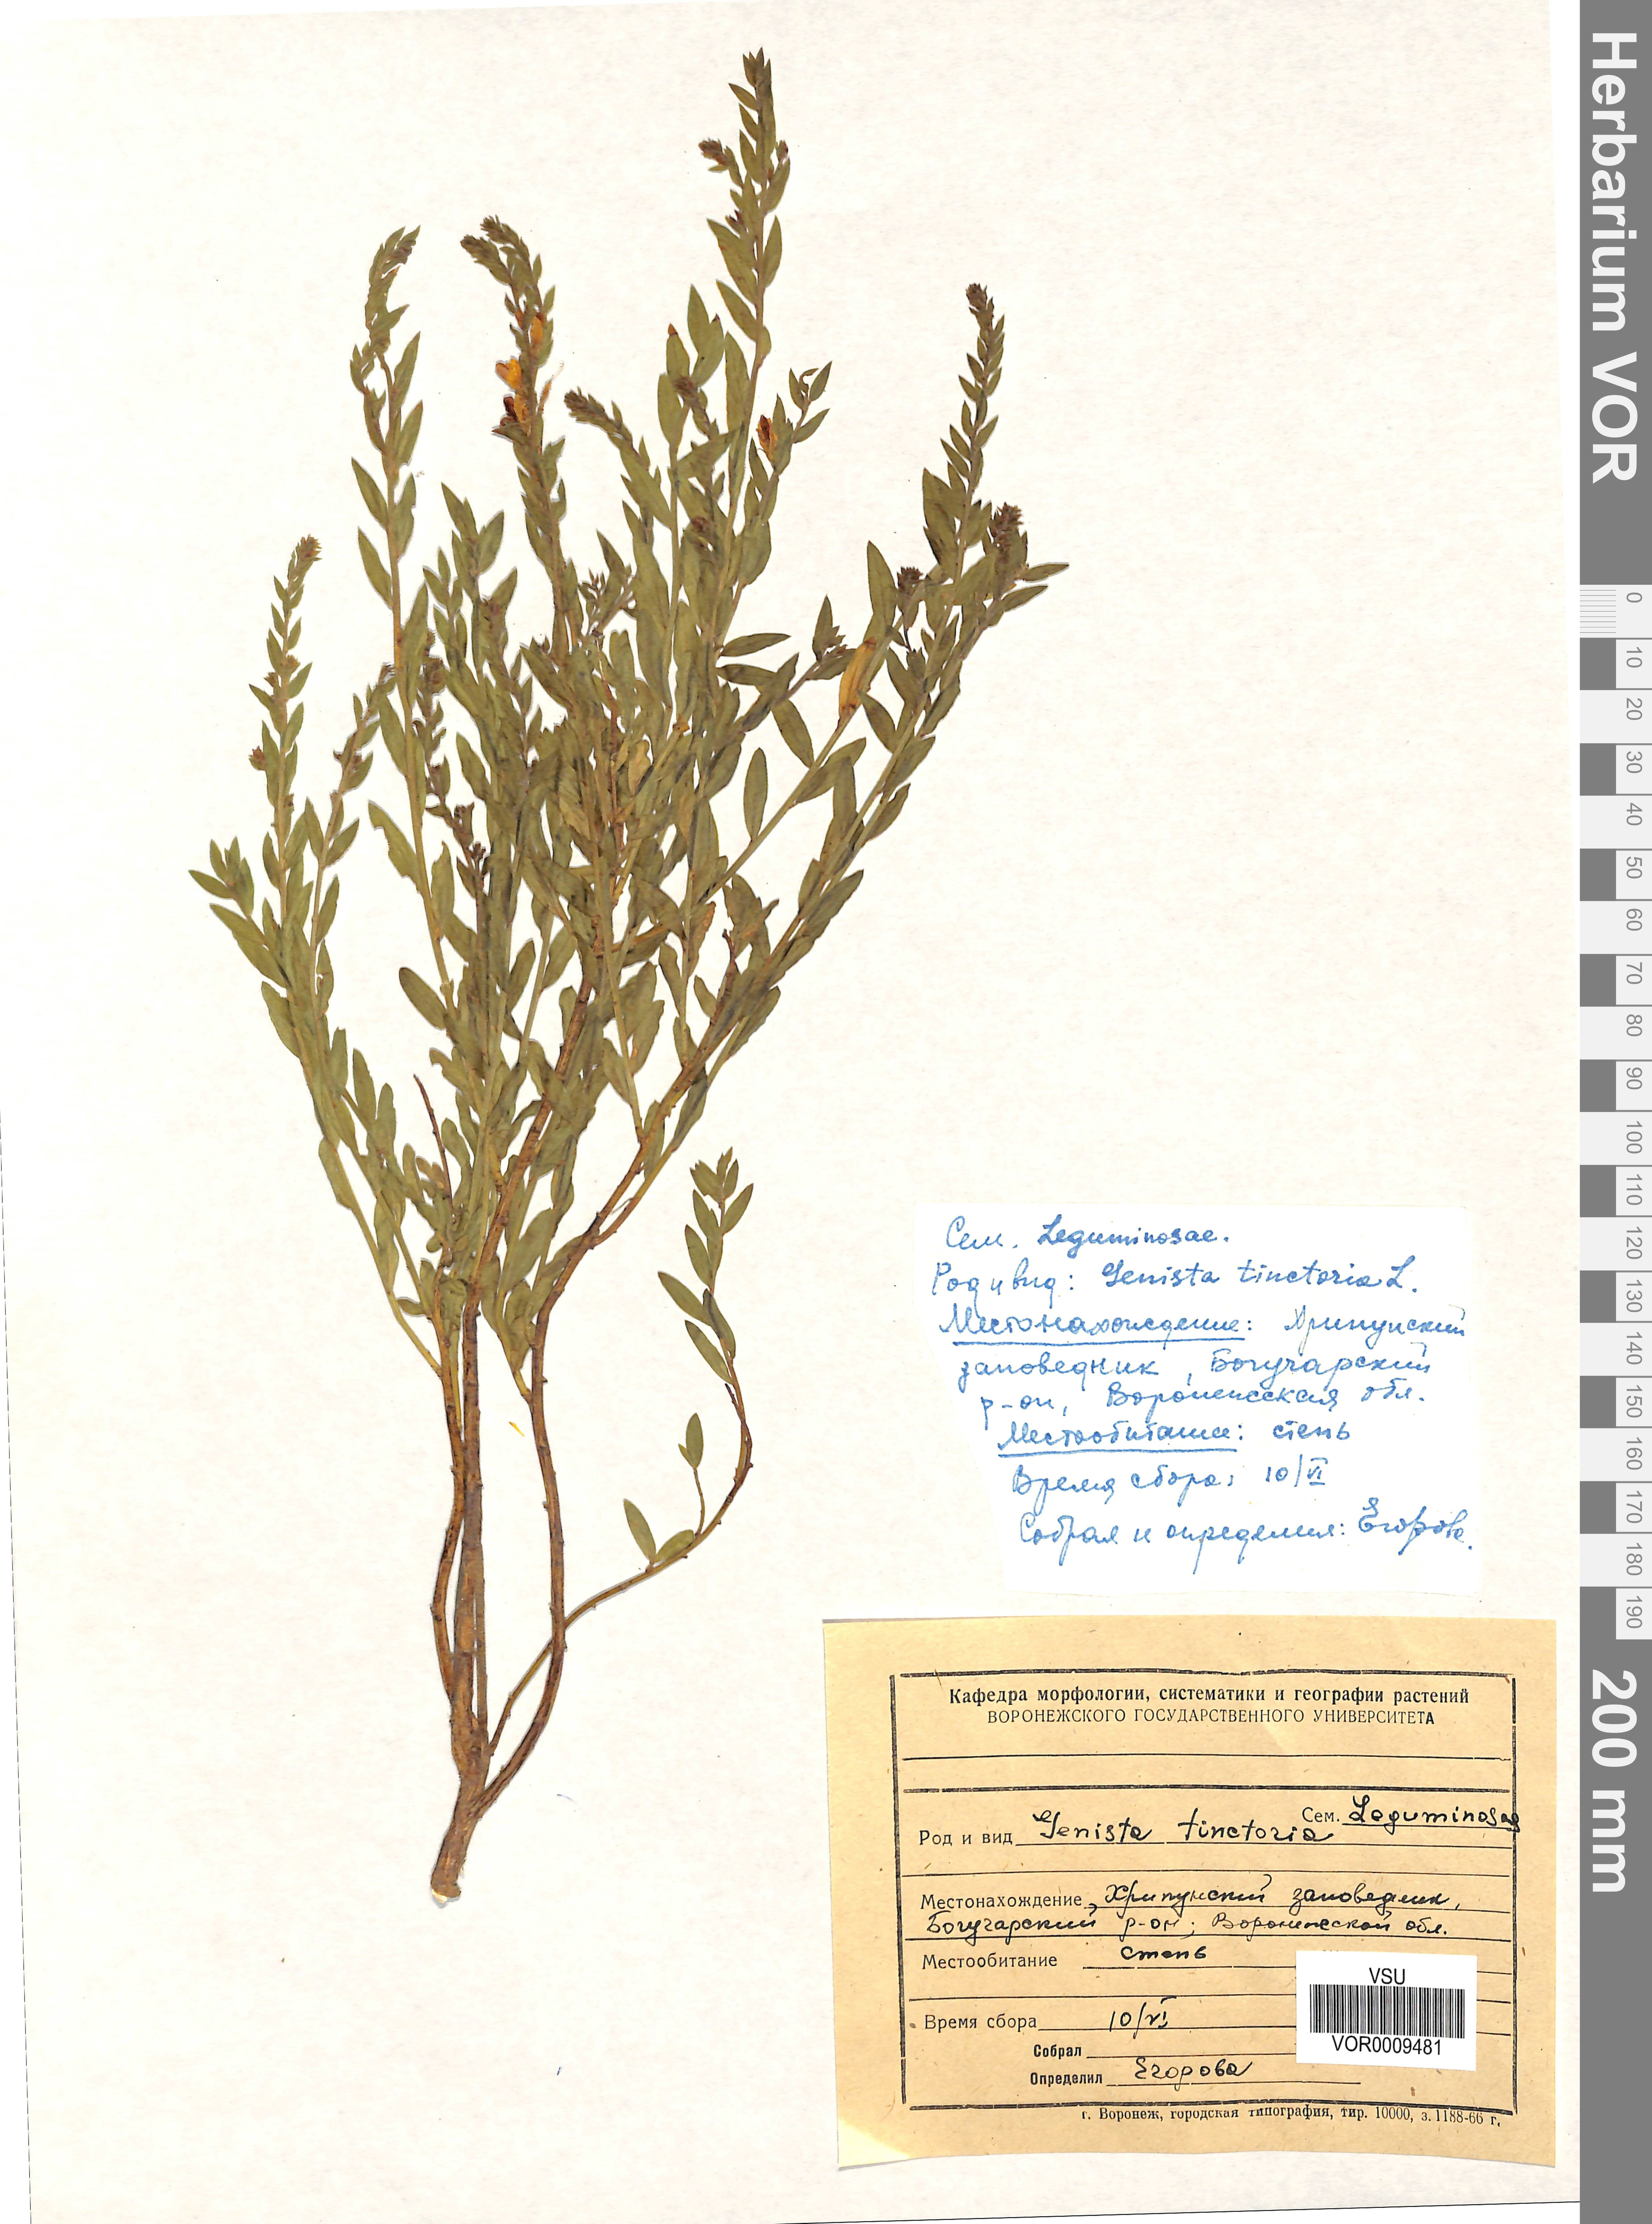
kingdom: Plantae
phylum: Tracheophyta
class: Magnoliopsida
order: Fabales
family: Fabaceae
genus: Genista
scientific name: Genista tinctoria
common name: Dyer's greenweed
